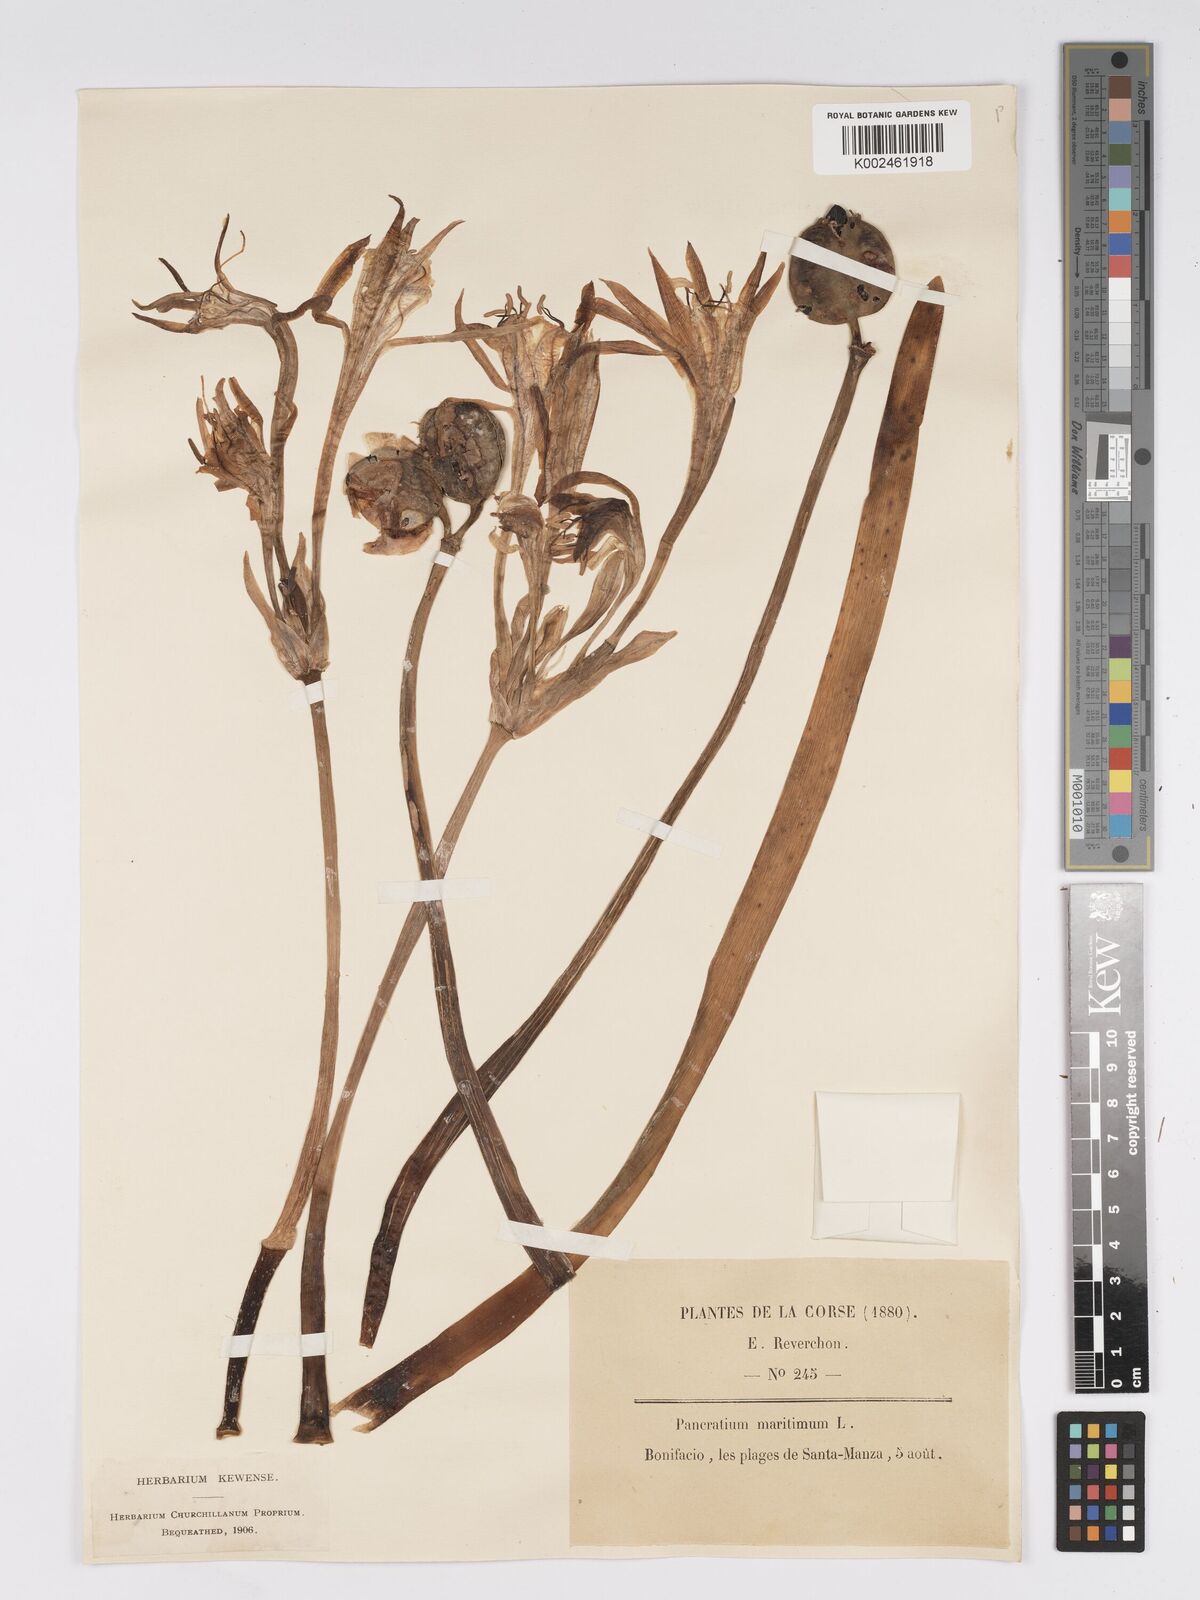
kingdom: Plantae
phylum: Tracheophyta
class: Liliopsida
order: Asparagales
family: Amaryllidaceae
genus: Pancratium
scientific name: Pancratium maritimum
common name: Sea-daffodil
